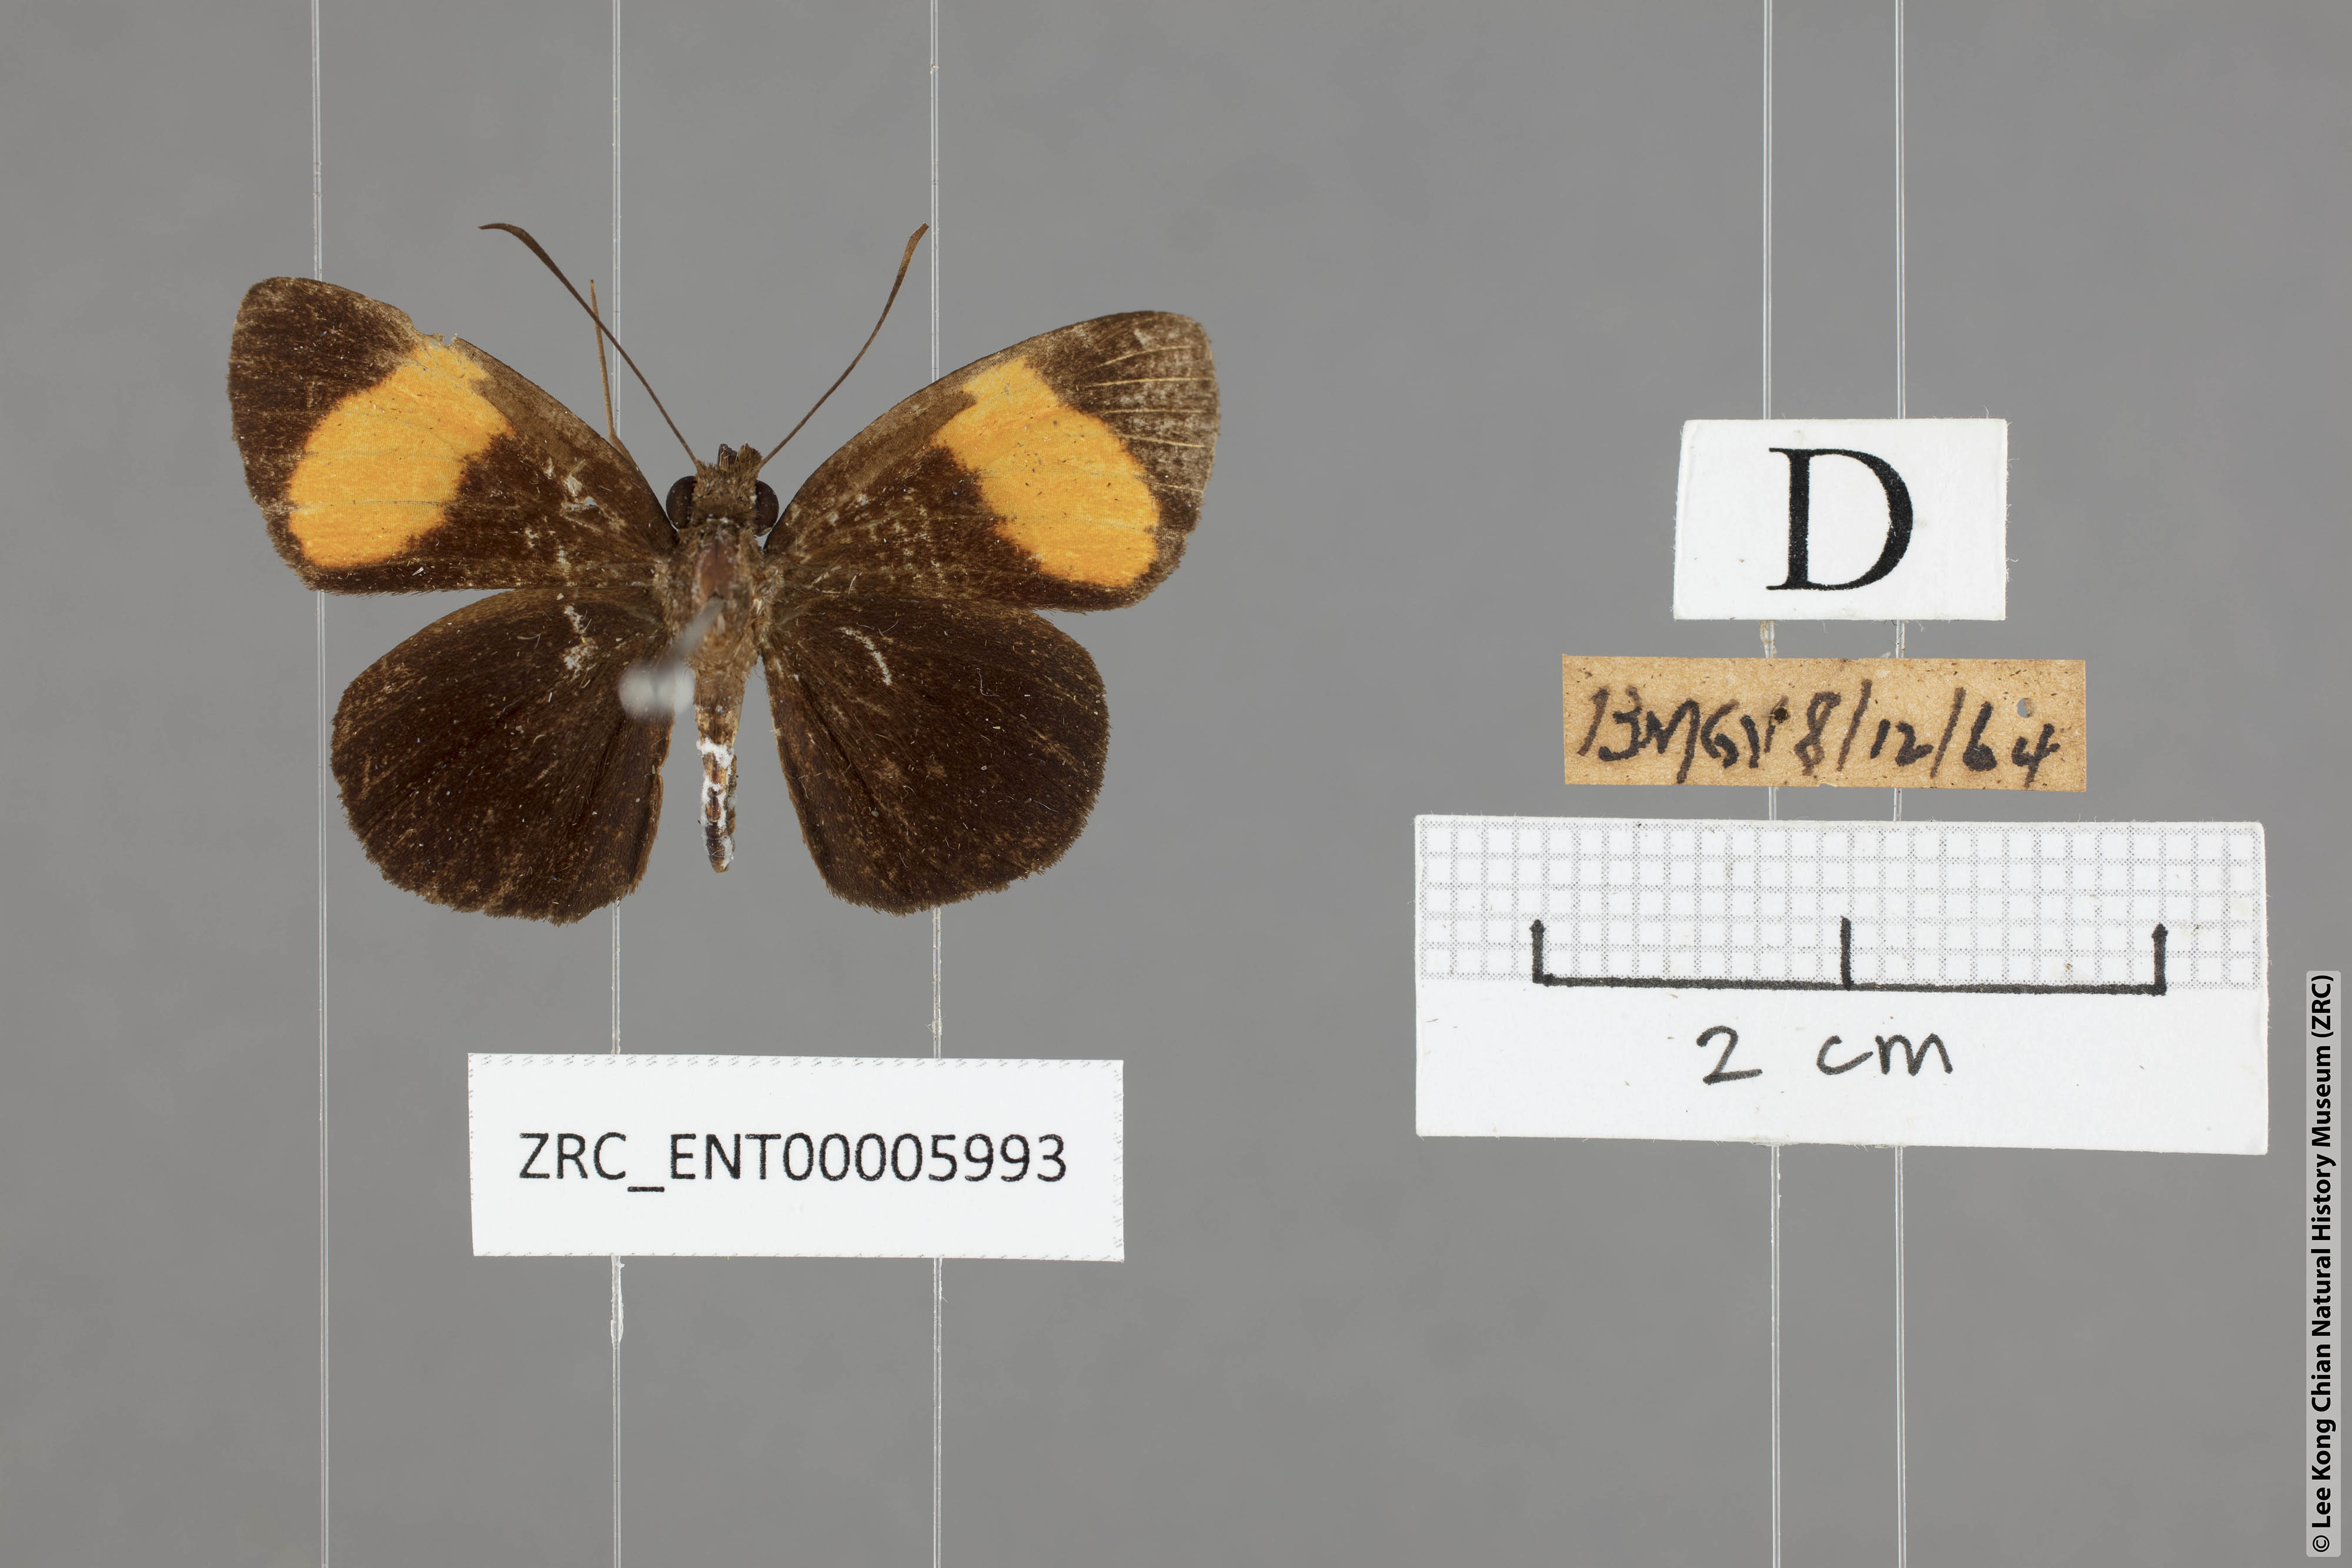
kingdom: Animalia
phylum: Arthropoda
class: Insecta
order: Lepidoptera
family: Hesperiidae
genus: Ancistroides
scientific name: Ancistroides gemmifer
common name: Gem demon
